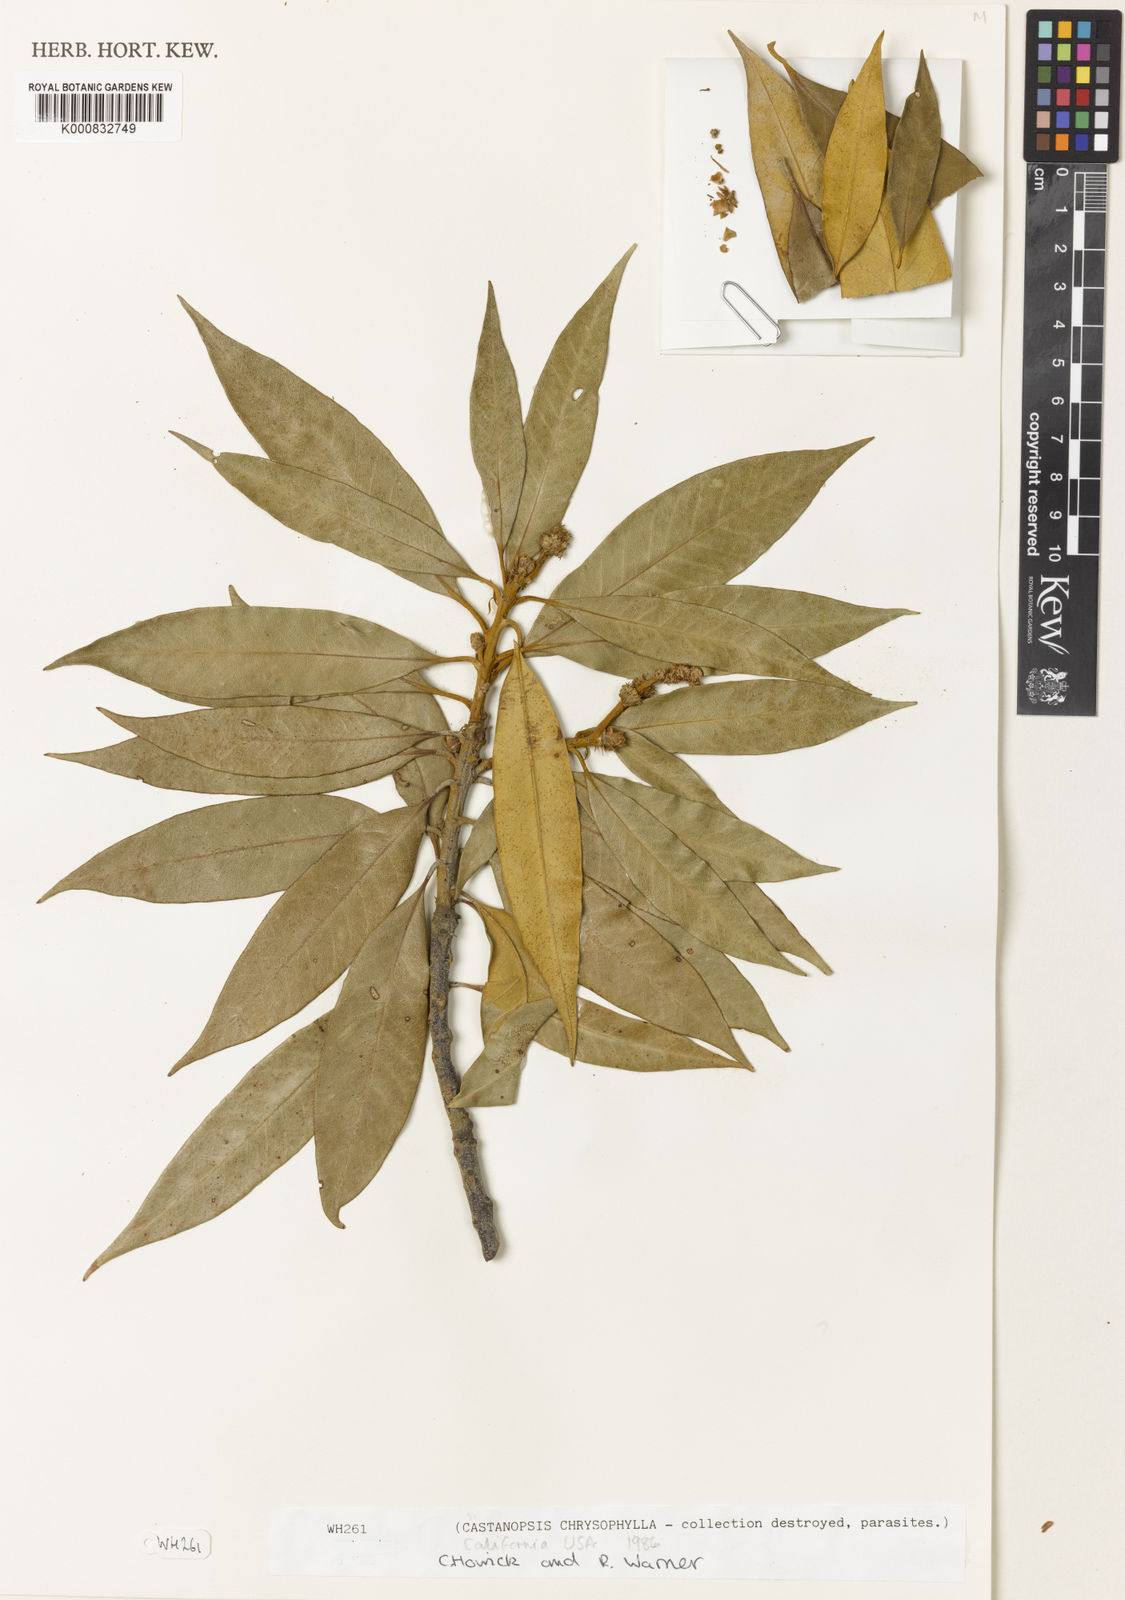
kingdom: Plantae
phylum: Tracheophyta
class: Magnoliopsida
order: Fagales
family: Fagaceae
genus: Chrysolepis
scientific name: Chrysolepis chrysophylla
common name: Giant chinquapin
